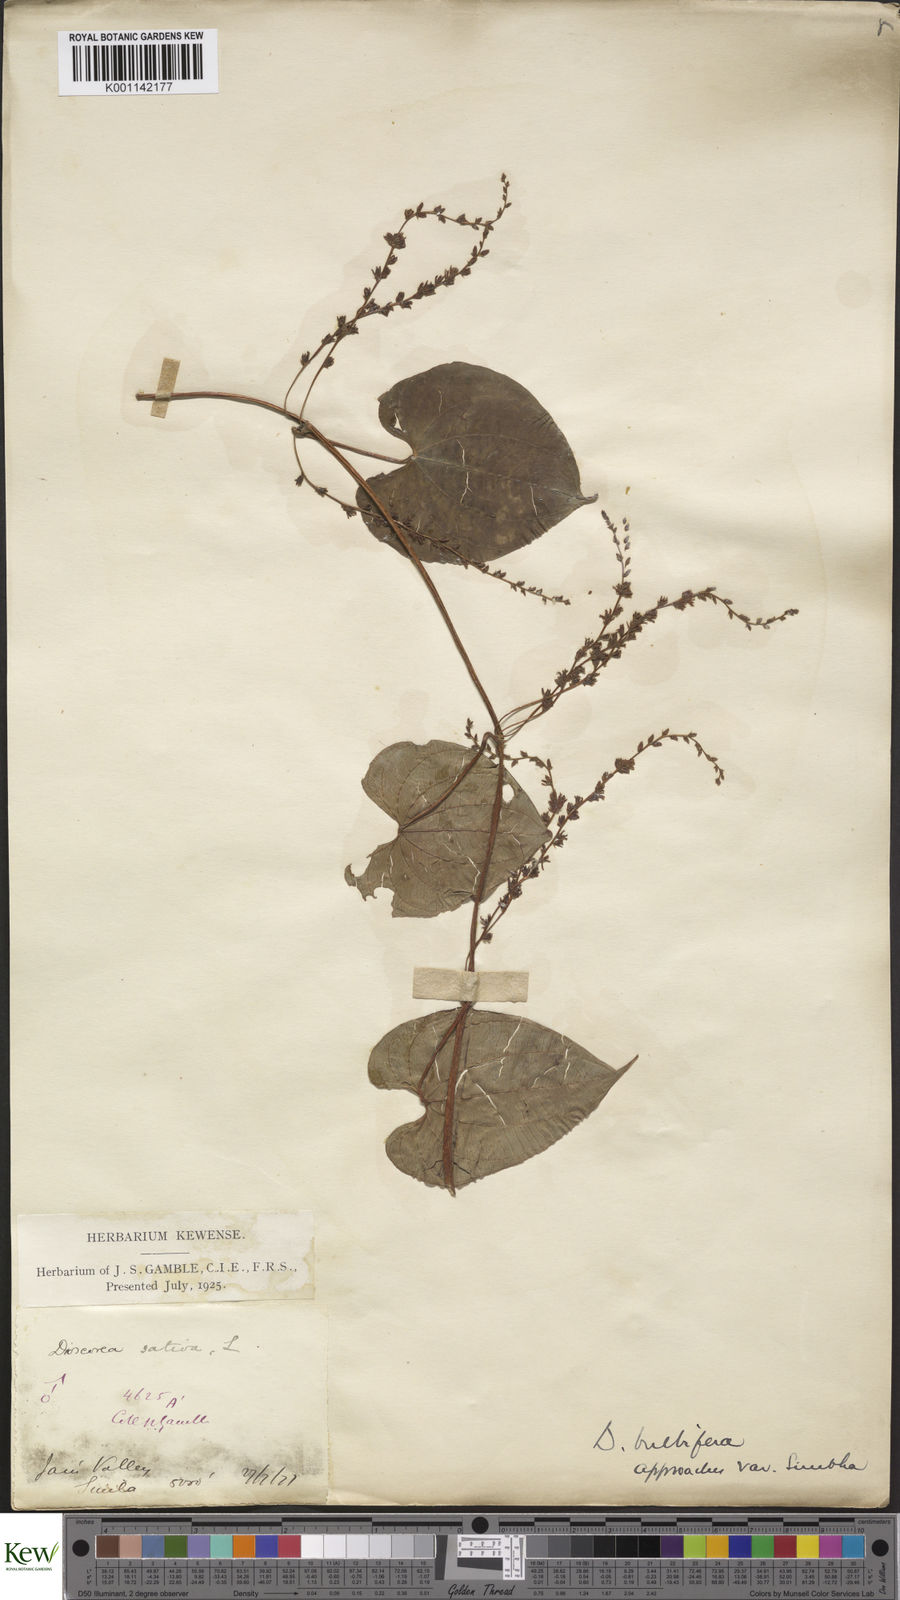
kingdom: Plantae
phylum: Tracheophyta
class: Liliopsida
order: Dioscoreales
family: Dioscoreaceae
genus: Dioscorea
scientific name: Dioscorea bulbifera
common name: Air yam
